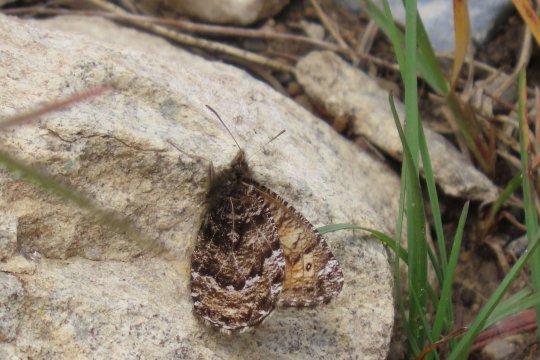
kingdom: Animalia
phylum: Arthropoda
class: Insecta
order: Lepidoptera
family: Nymphalidae
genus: Oeneis
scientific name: Oeneis chryxus
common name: Chryxus Arctic
